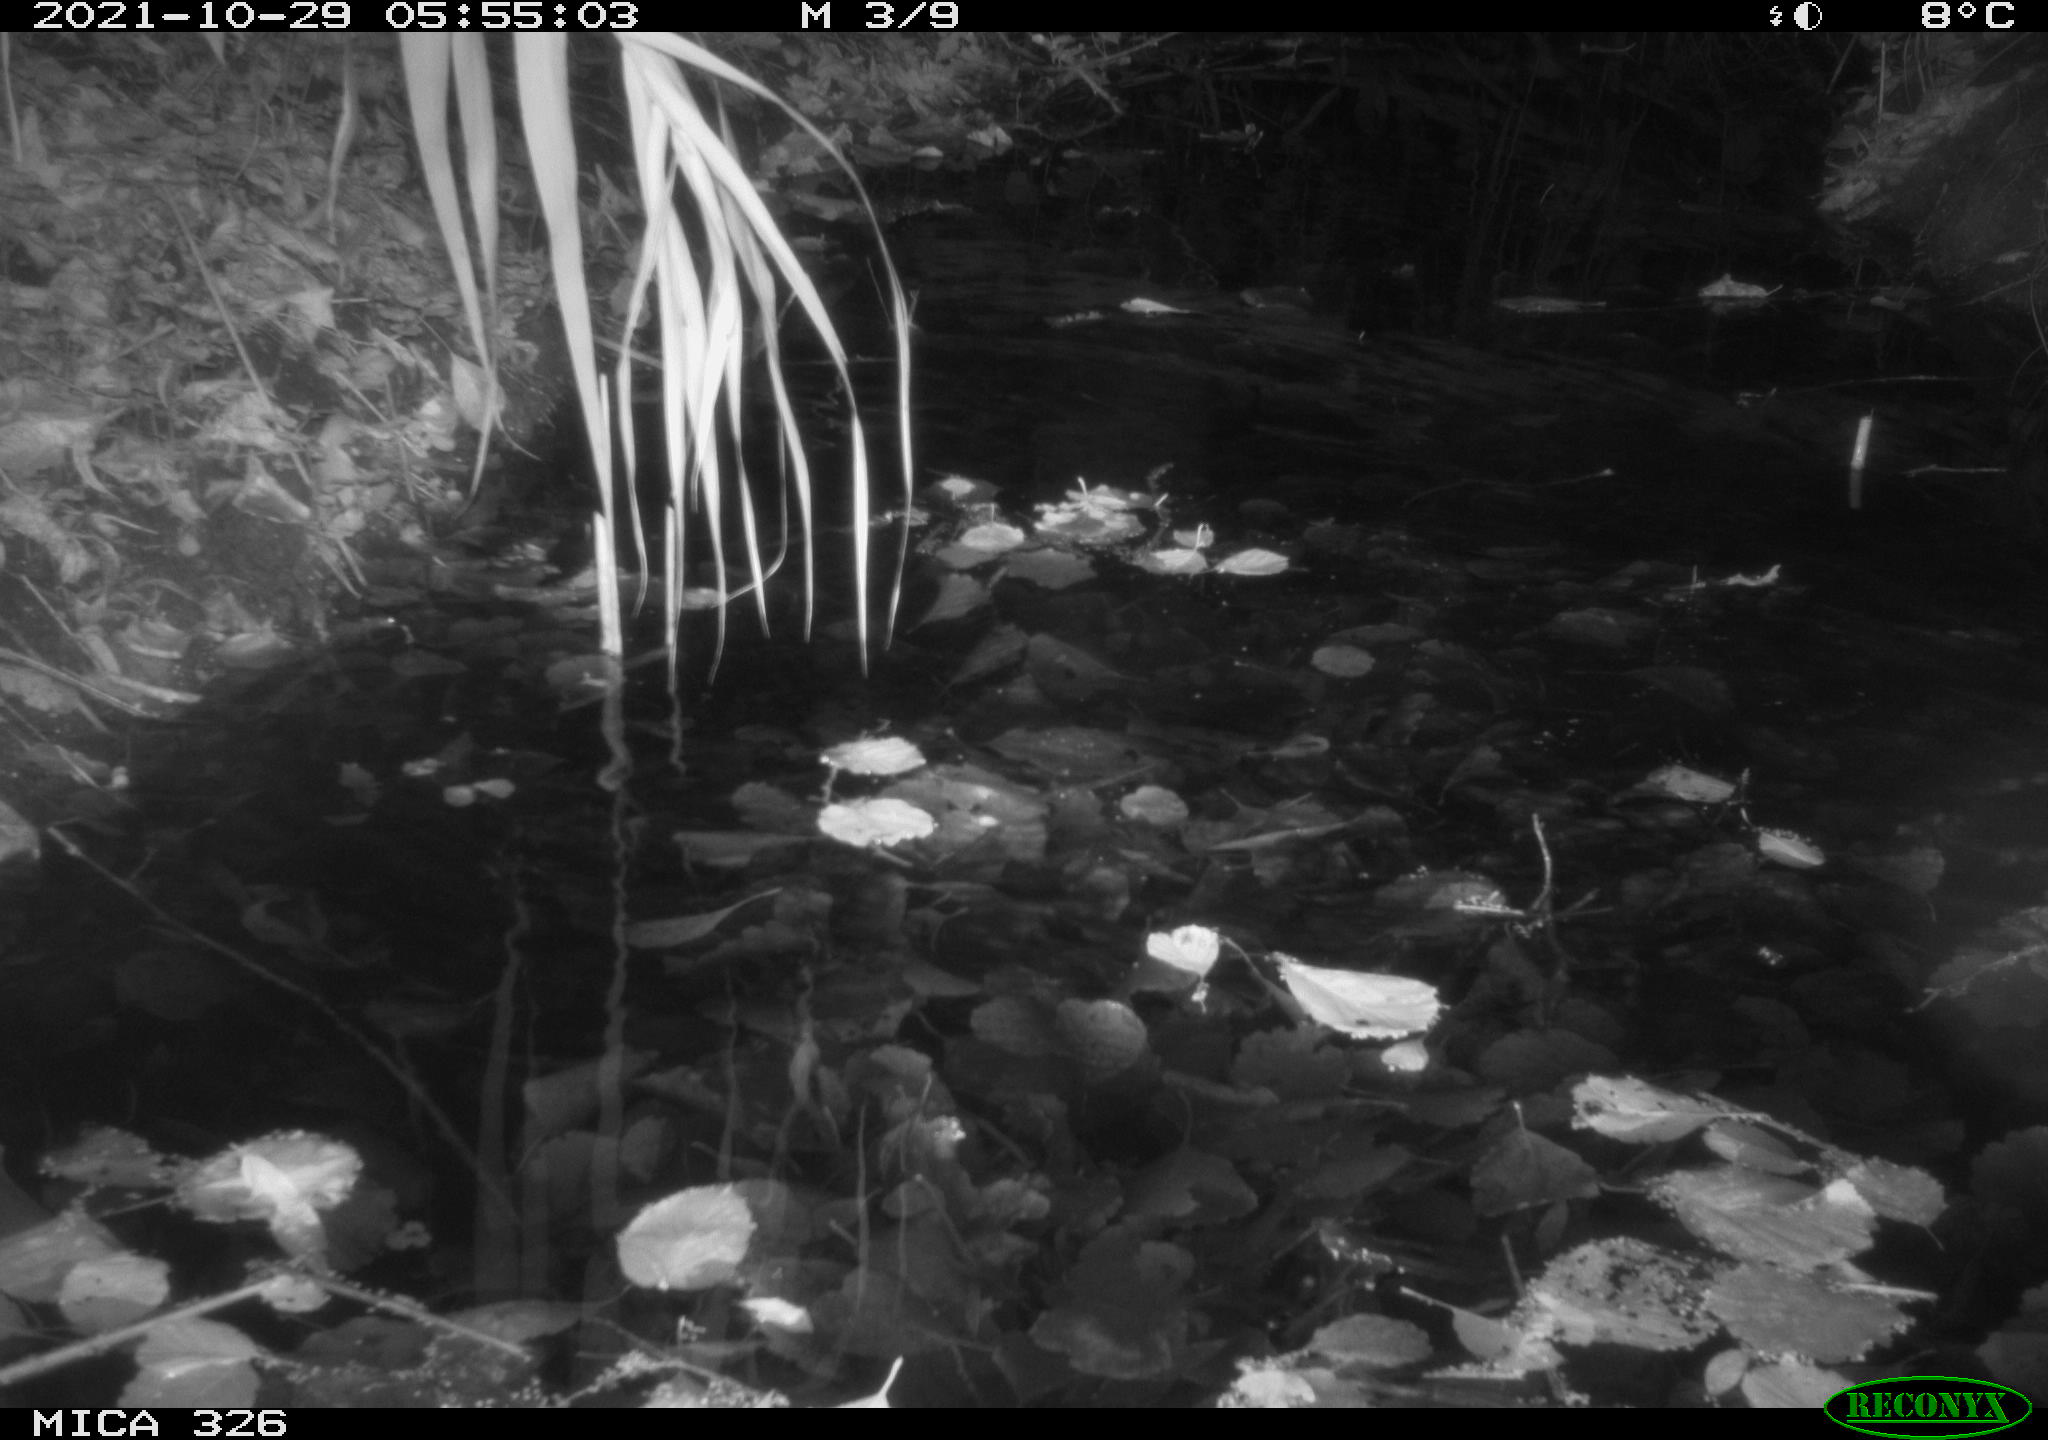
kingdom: Animalia
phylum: Chordata
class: Mammalia
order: Rodentia
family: Muridae
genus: Rattus
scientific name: Rattus norvegicus
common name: Brown rat
